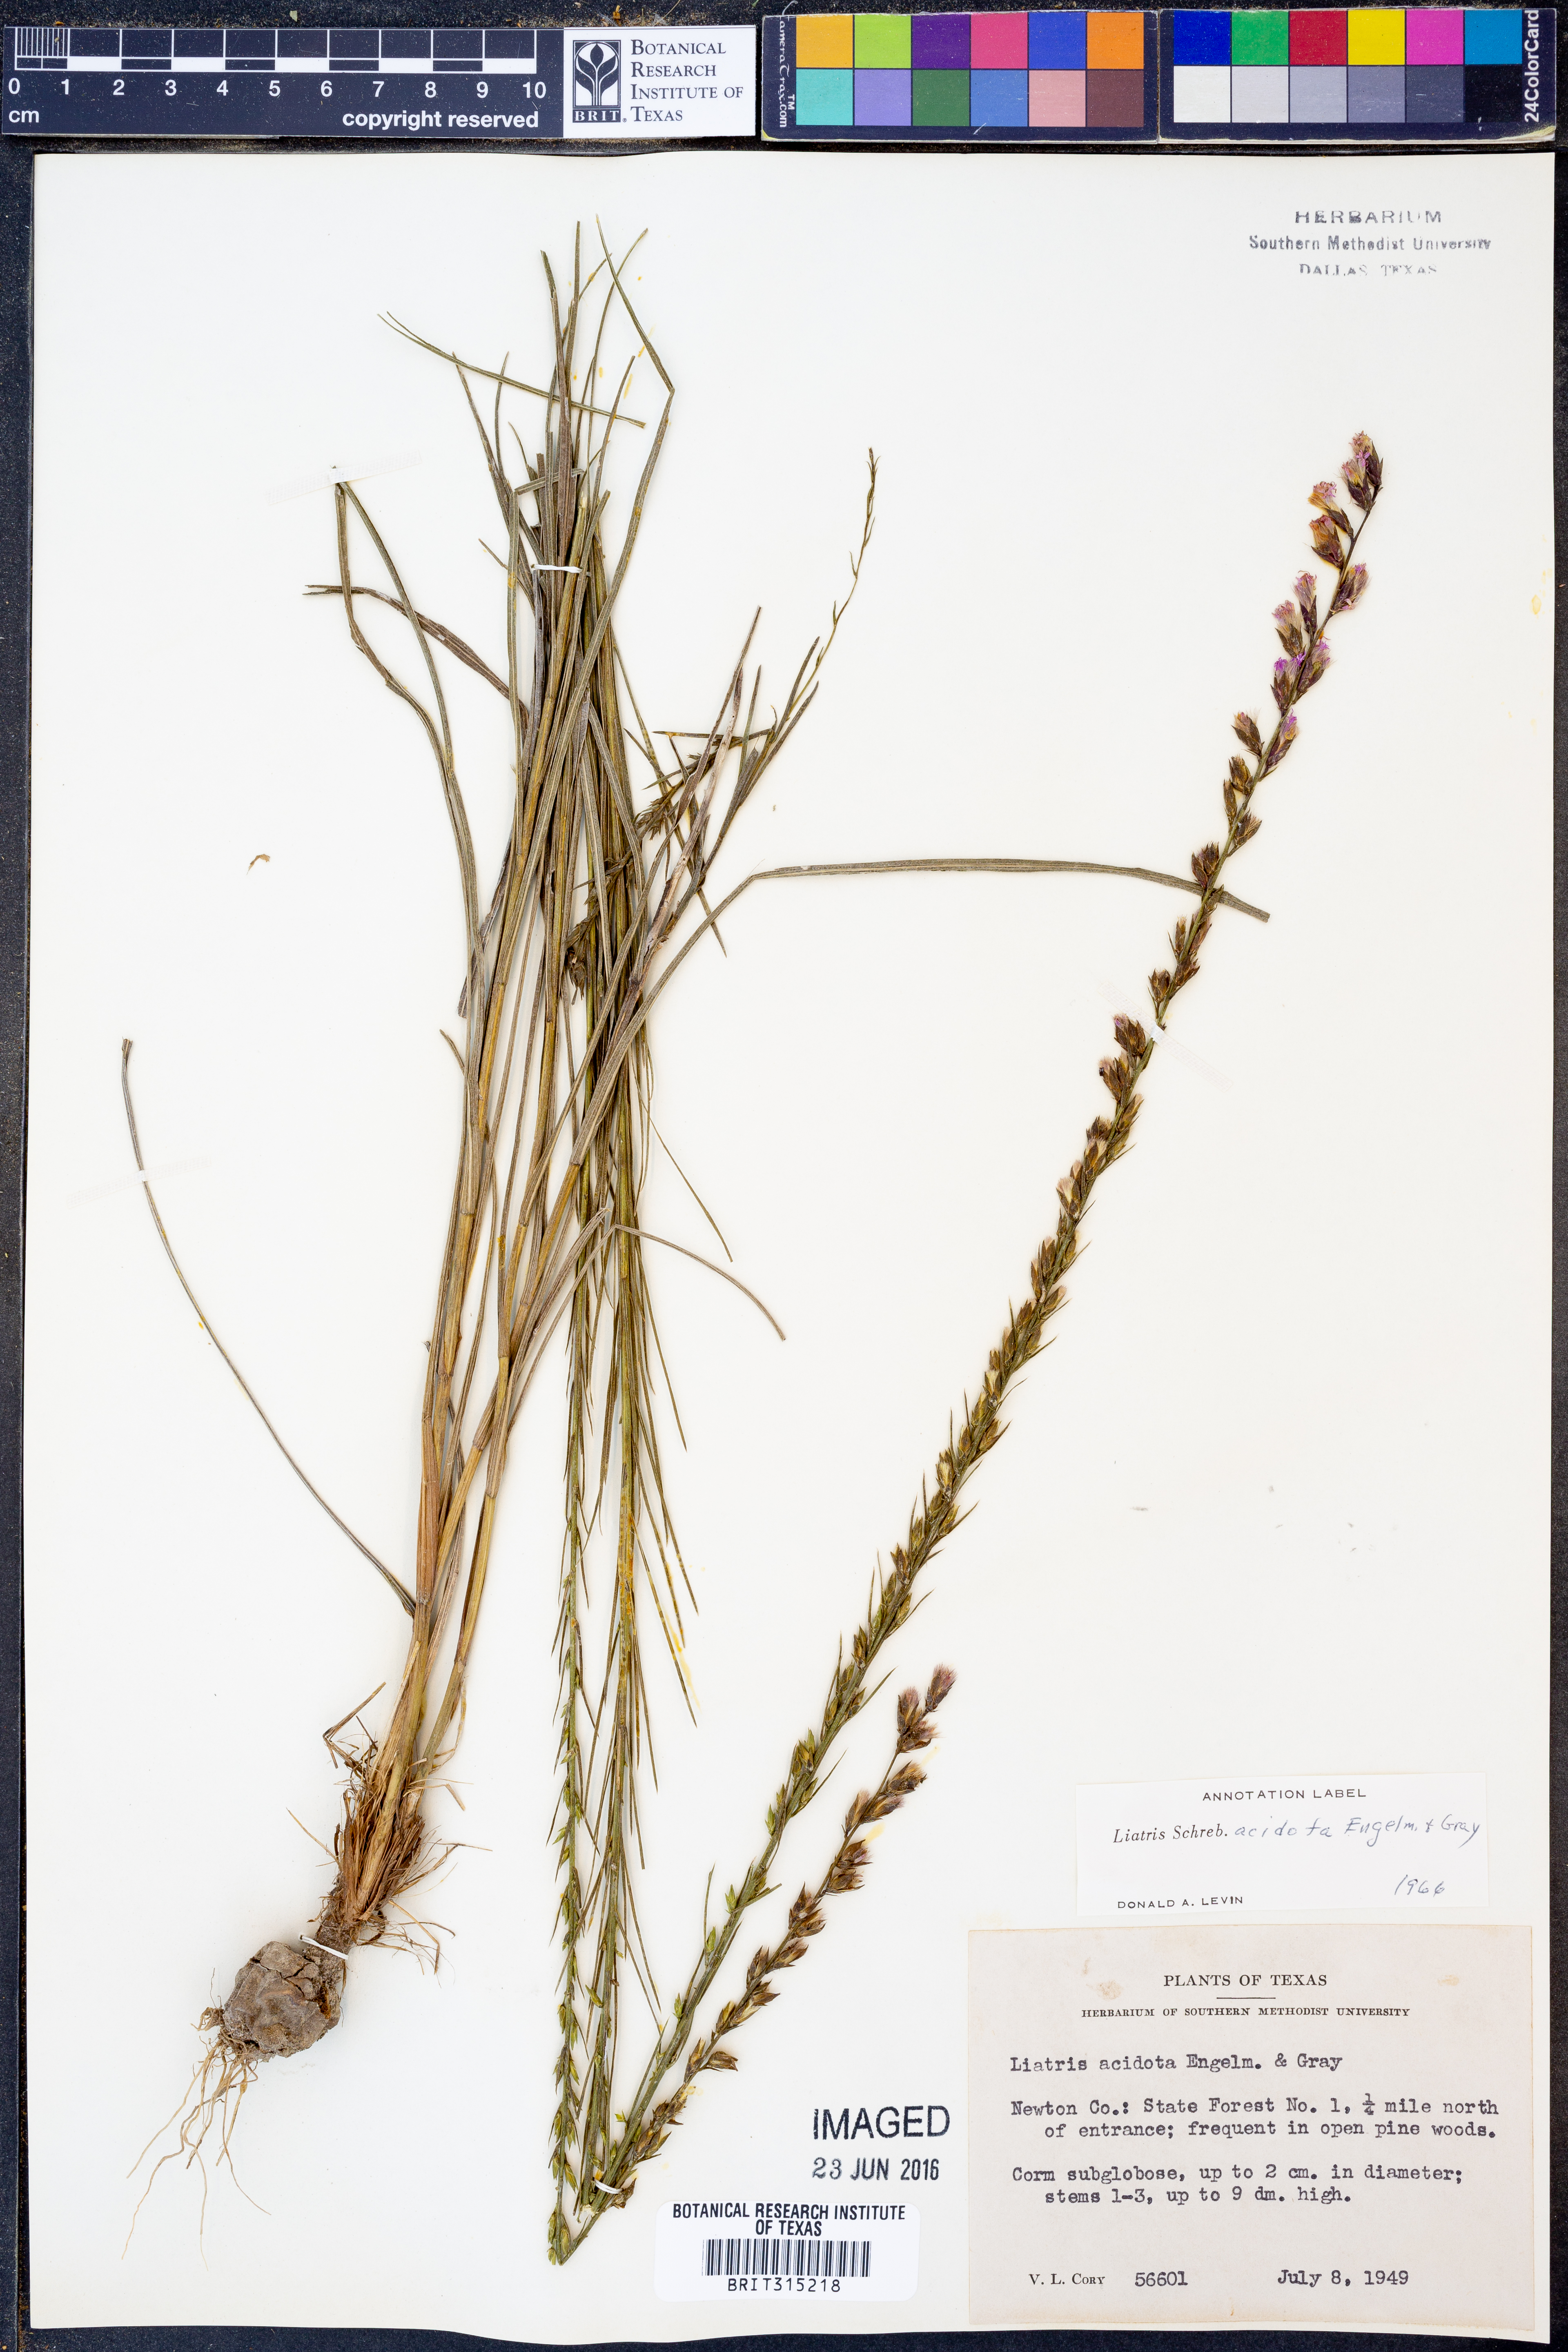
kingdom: Plantae
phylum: Tracheophyta
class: Magnoliopsida
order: Asterales
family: Asteraceae
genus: Liatris
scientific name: Liatris acidota
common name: Gulf coast gayfeather
